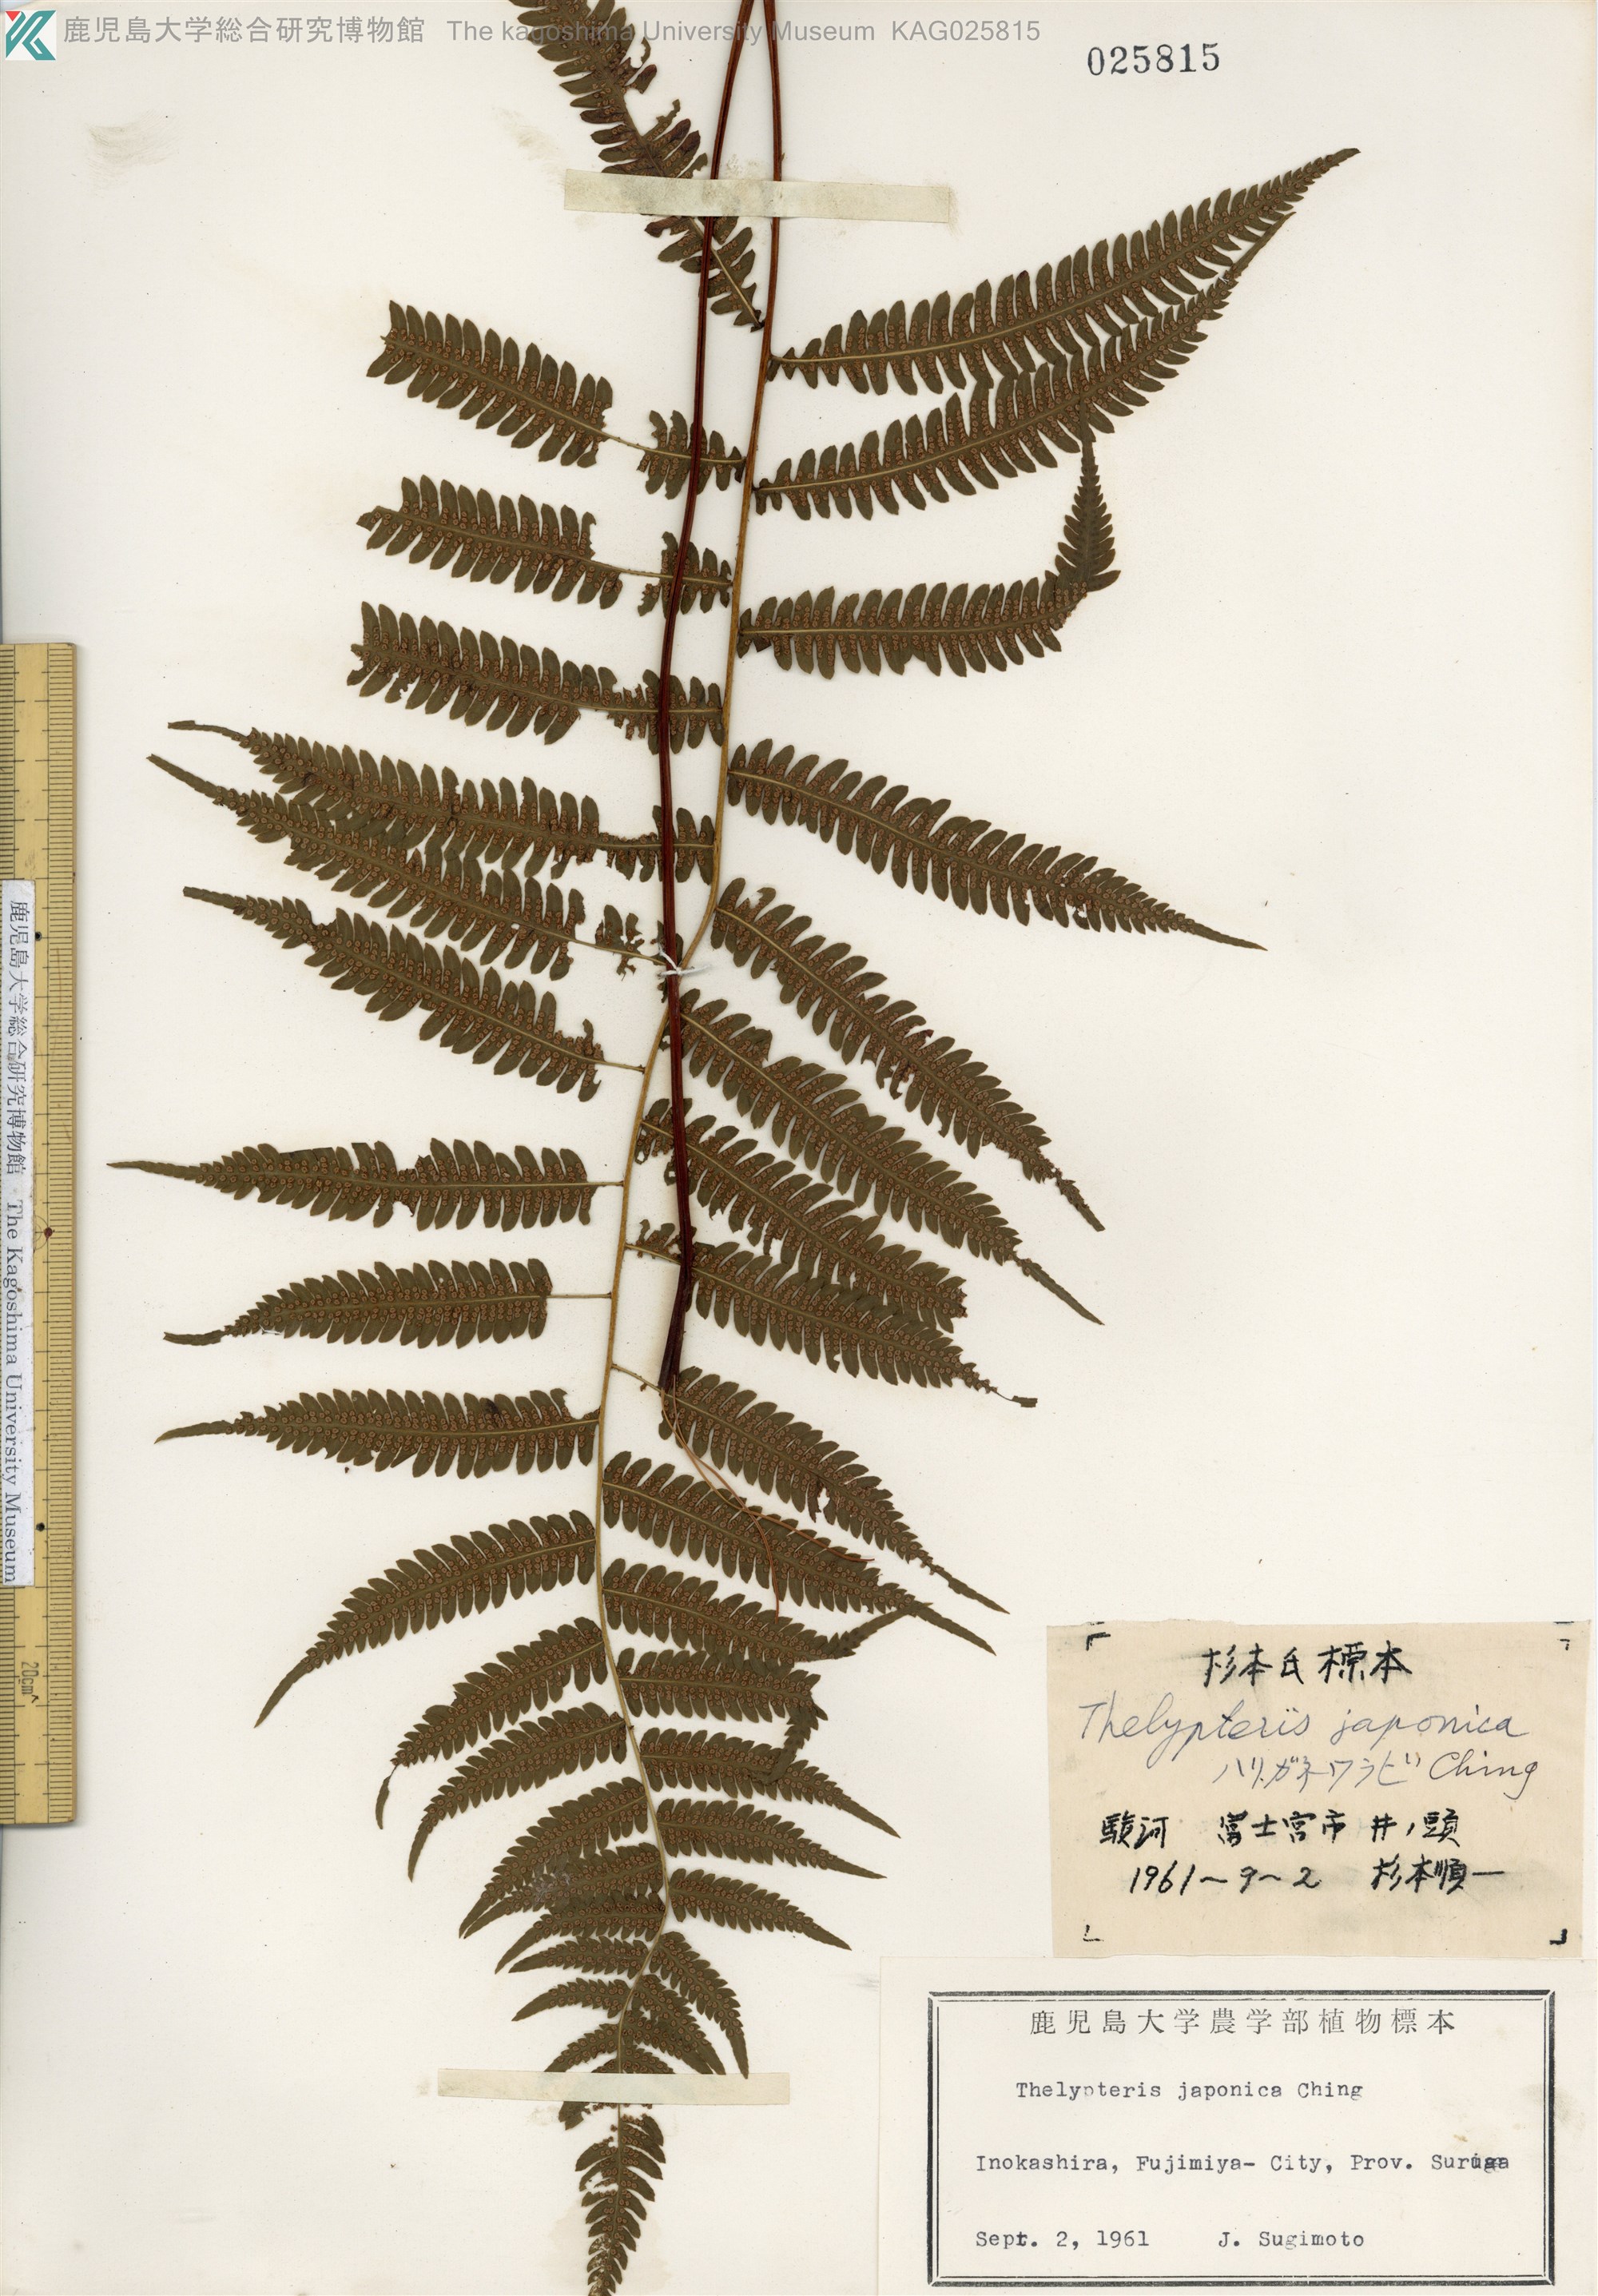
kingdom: Plantae
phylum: Tracheophyta
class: Polypodiopsida
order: Polypodiales
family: Thelypteridaceae
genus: Coryphopteris
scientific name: Coryphopteris japonica
